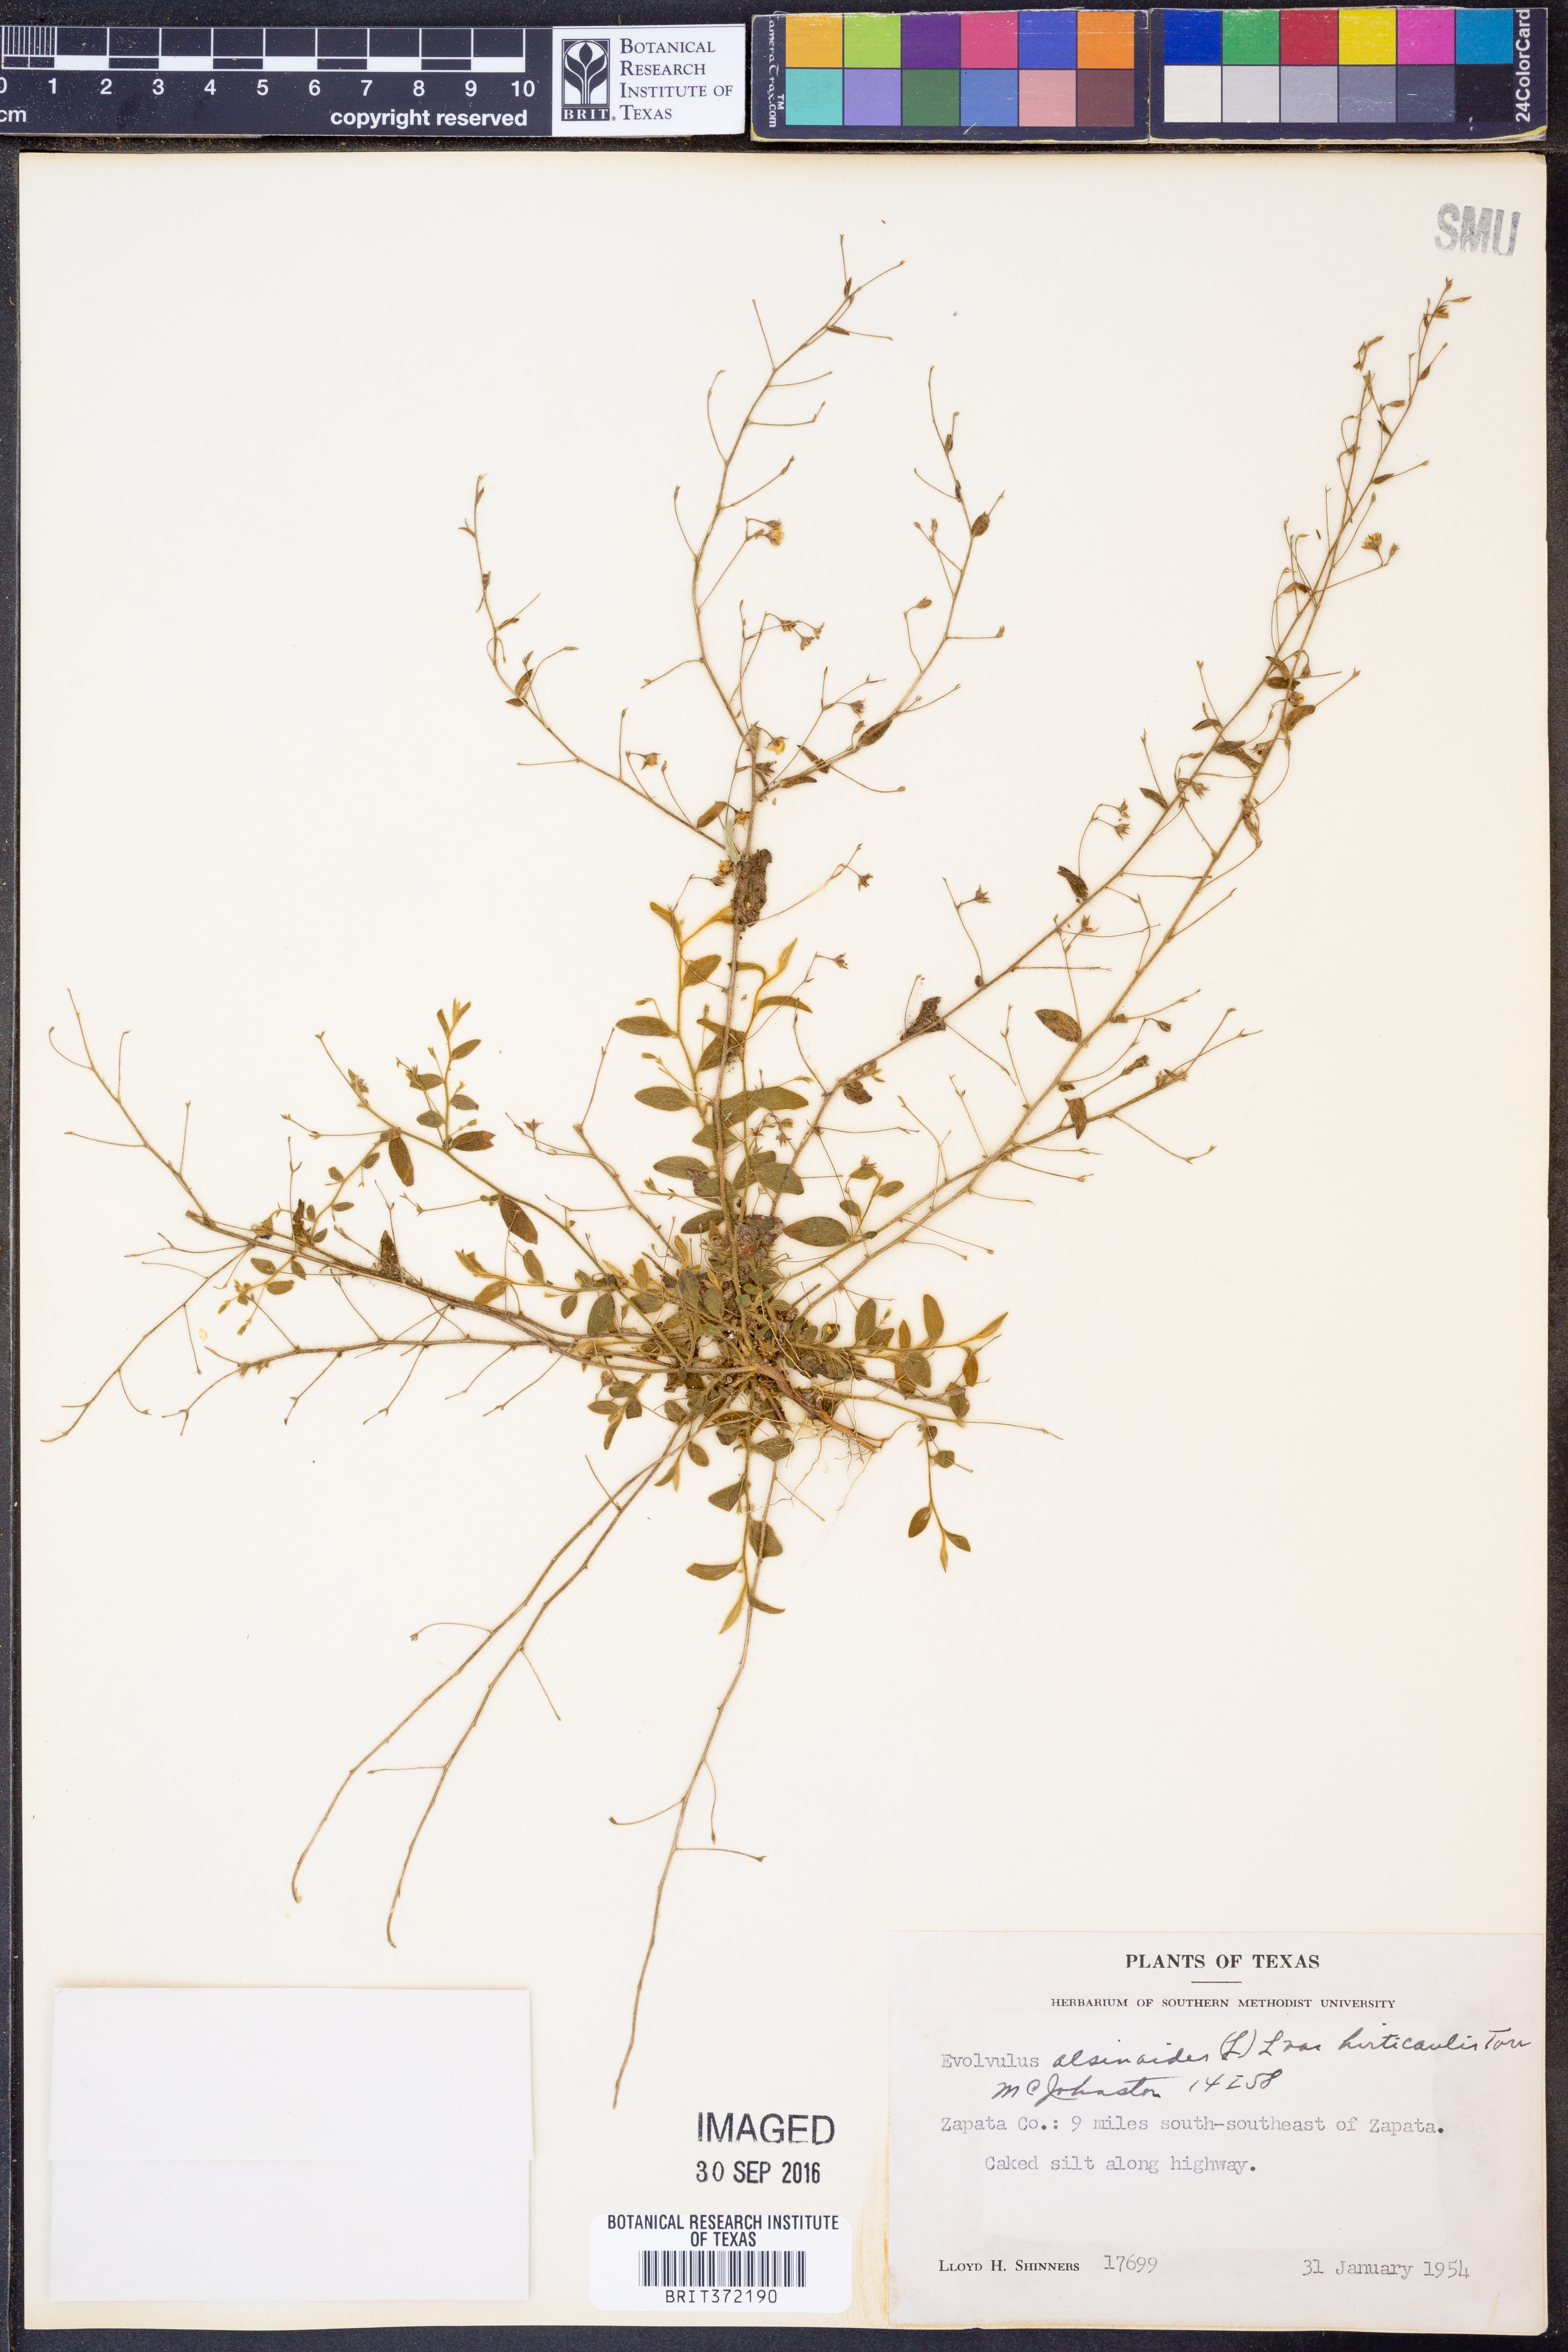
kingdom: Plantae
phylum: Tracheophyta
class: Magnoliopsida
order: Solanales
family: Convolvulaceae
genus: Evolvulus
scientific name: Evolvulus alsinoides
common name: Slender dwarf morning-glory
